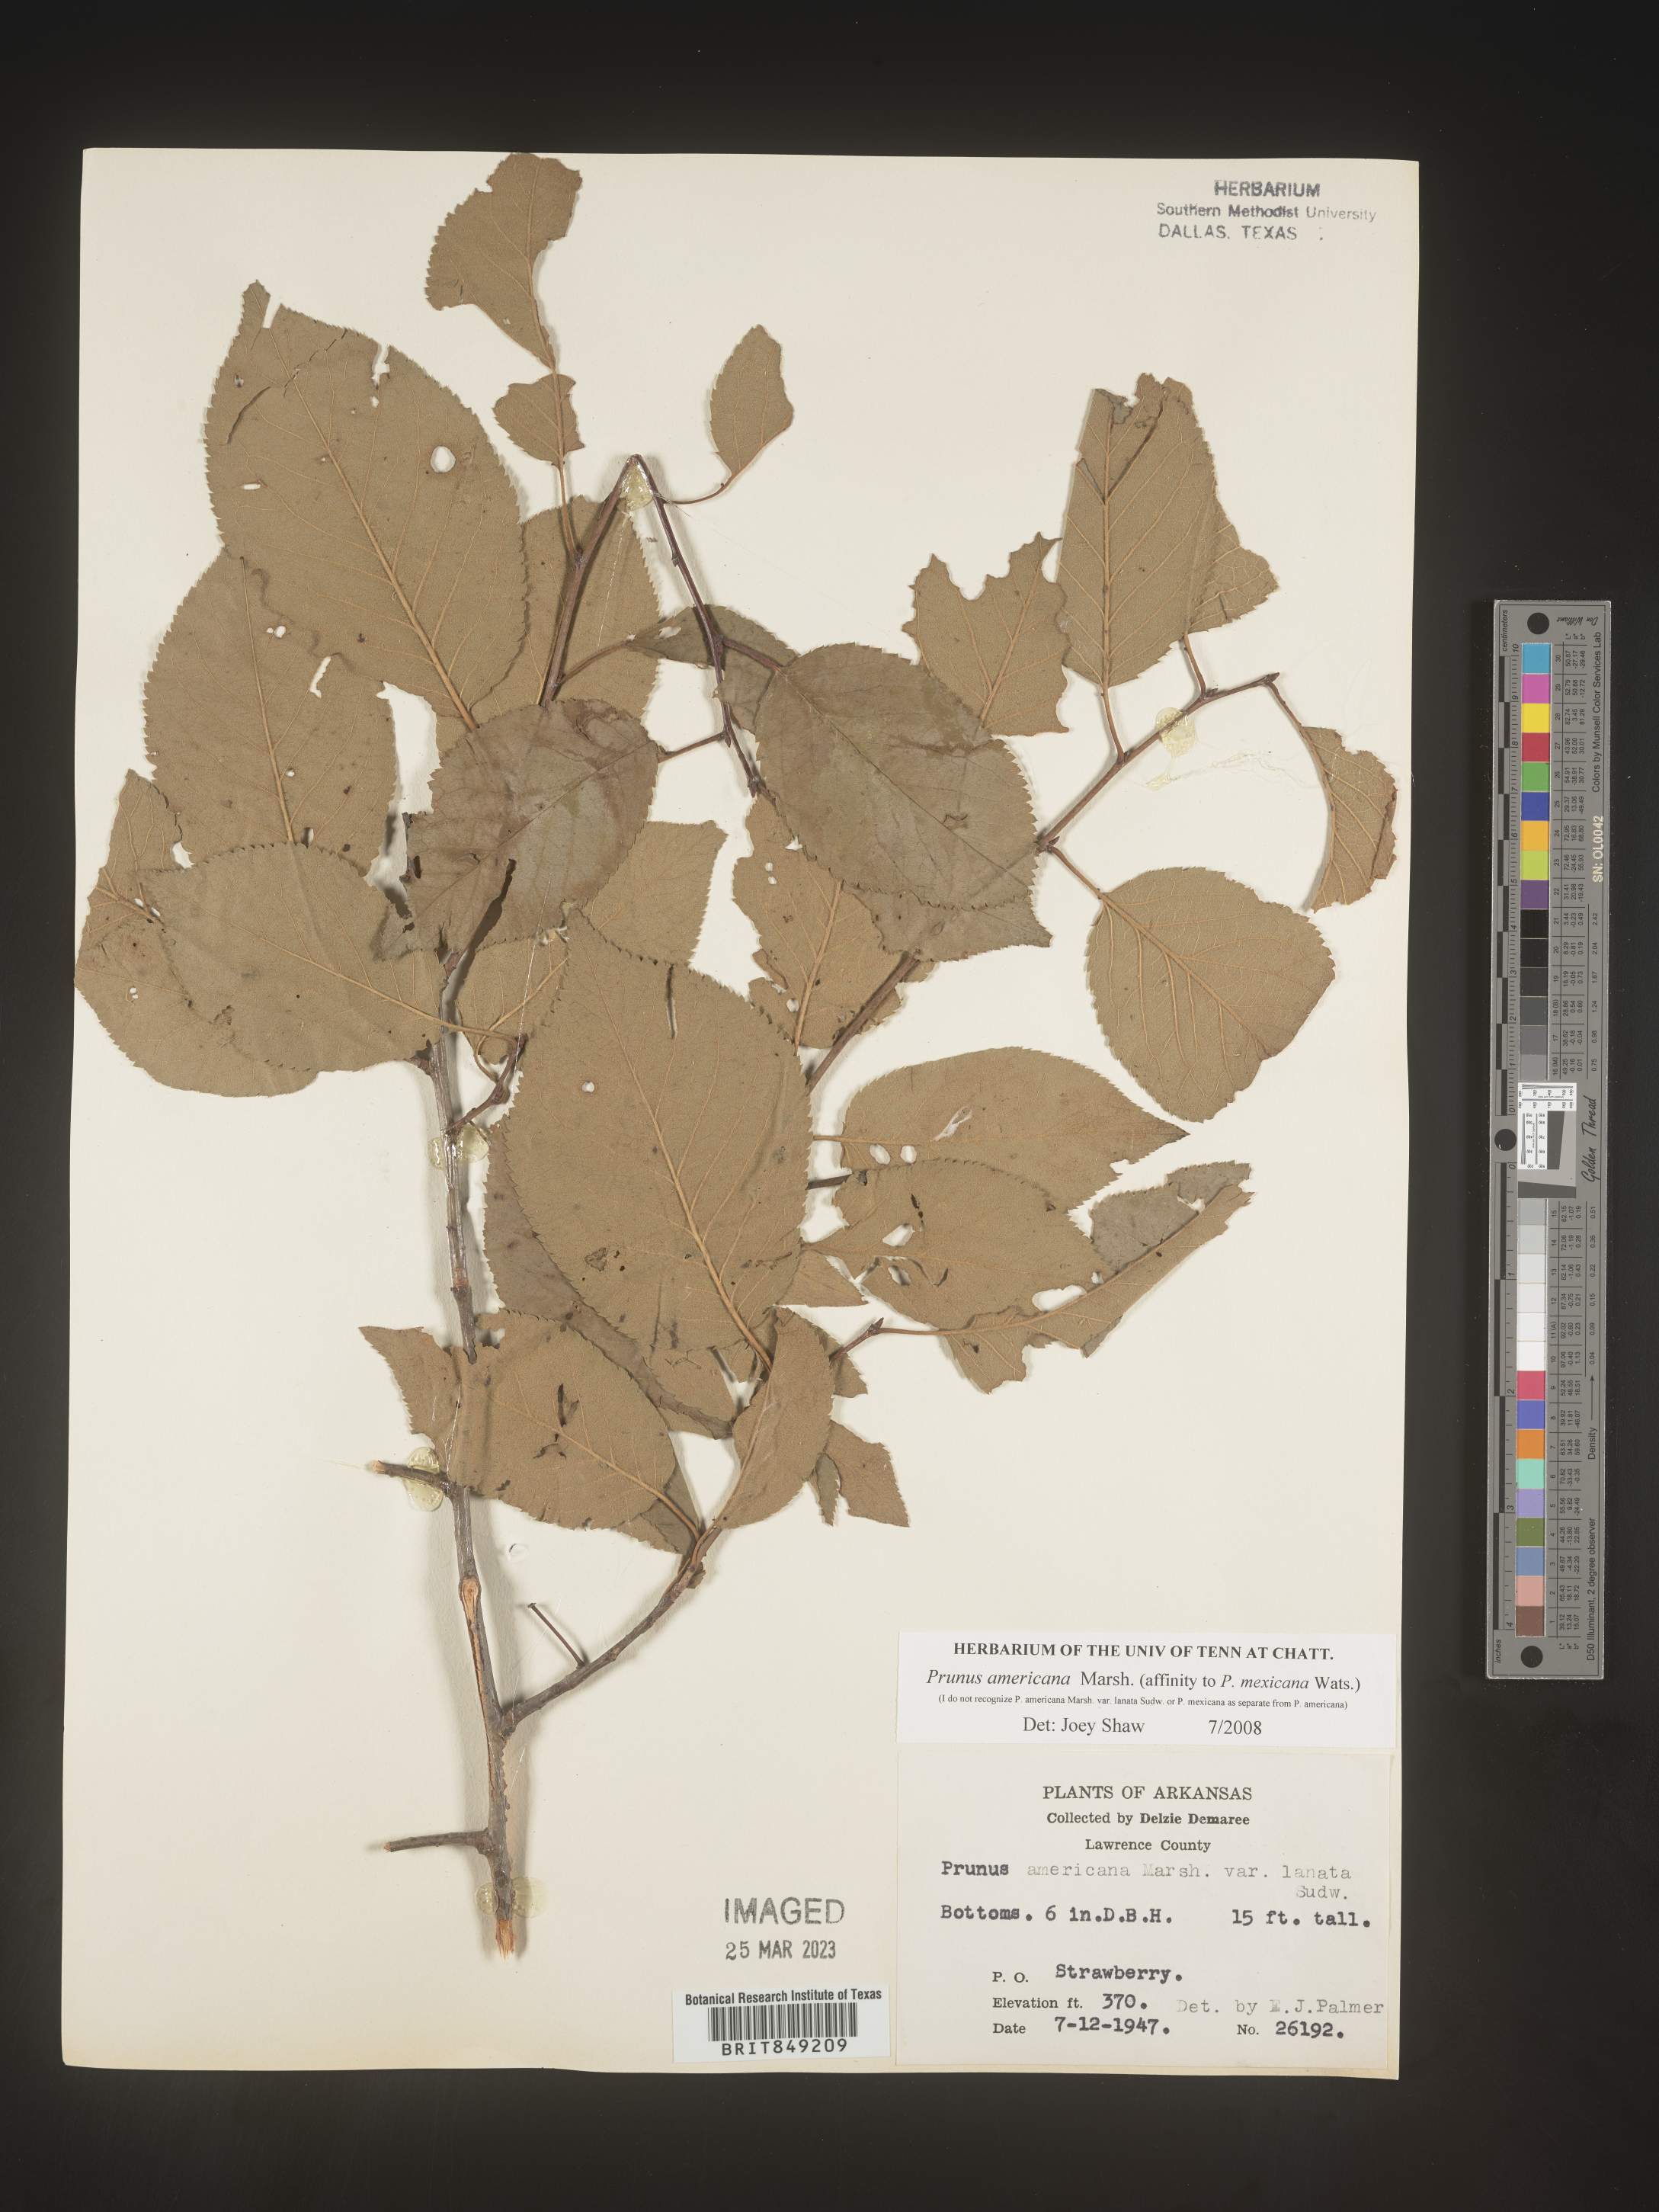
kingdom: Plantae
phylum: Tracheophyta
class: Magnoliopsida
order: Rosales
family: Rosaceae
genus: Prunus
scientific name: Prunus americana
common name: American plum
